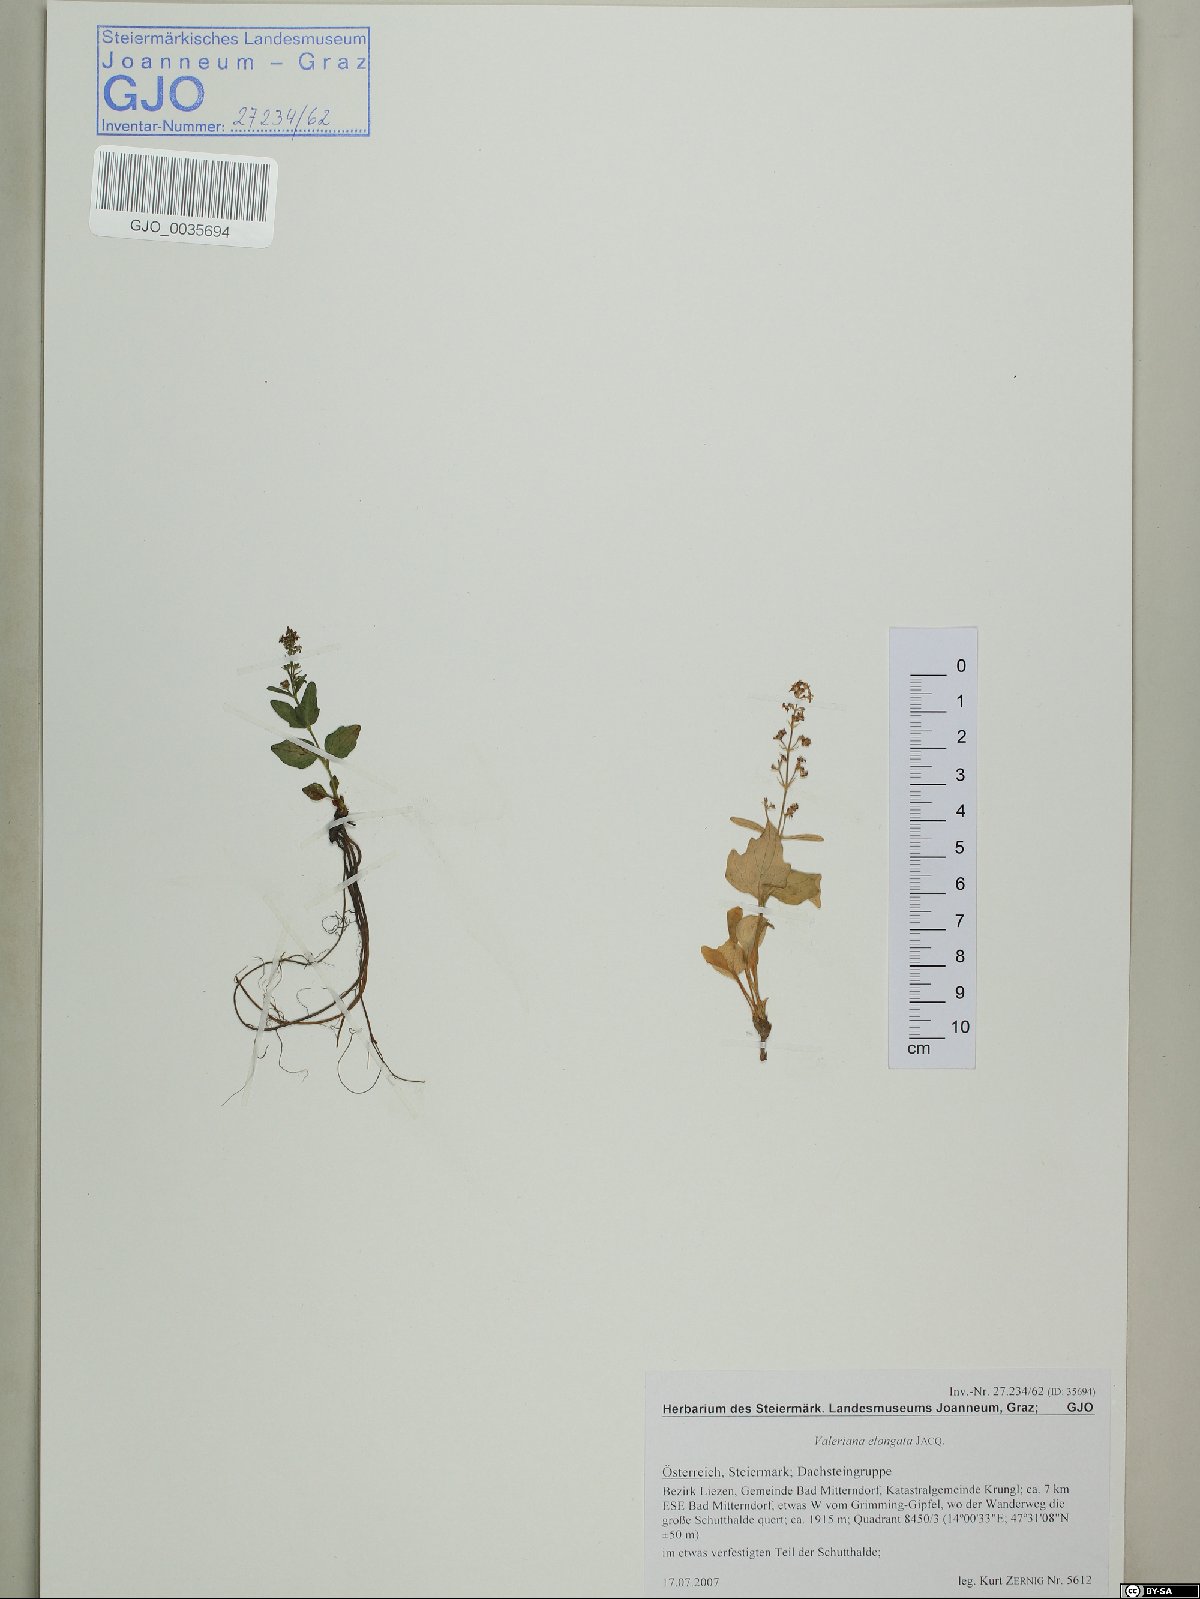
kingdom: Plantae
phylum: Tracheophyta
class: Magnoliopsida
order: Dipsacales
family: Caprifoliaceae
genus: Valeriana
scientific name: Valeriana elongata
